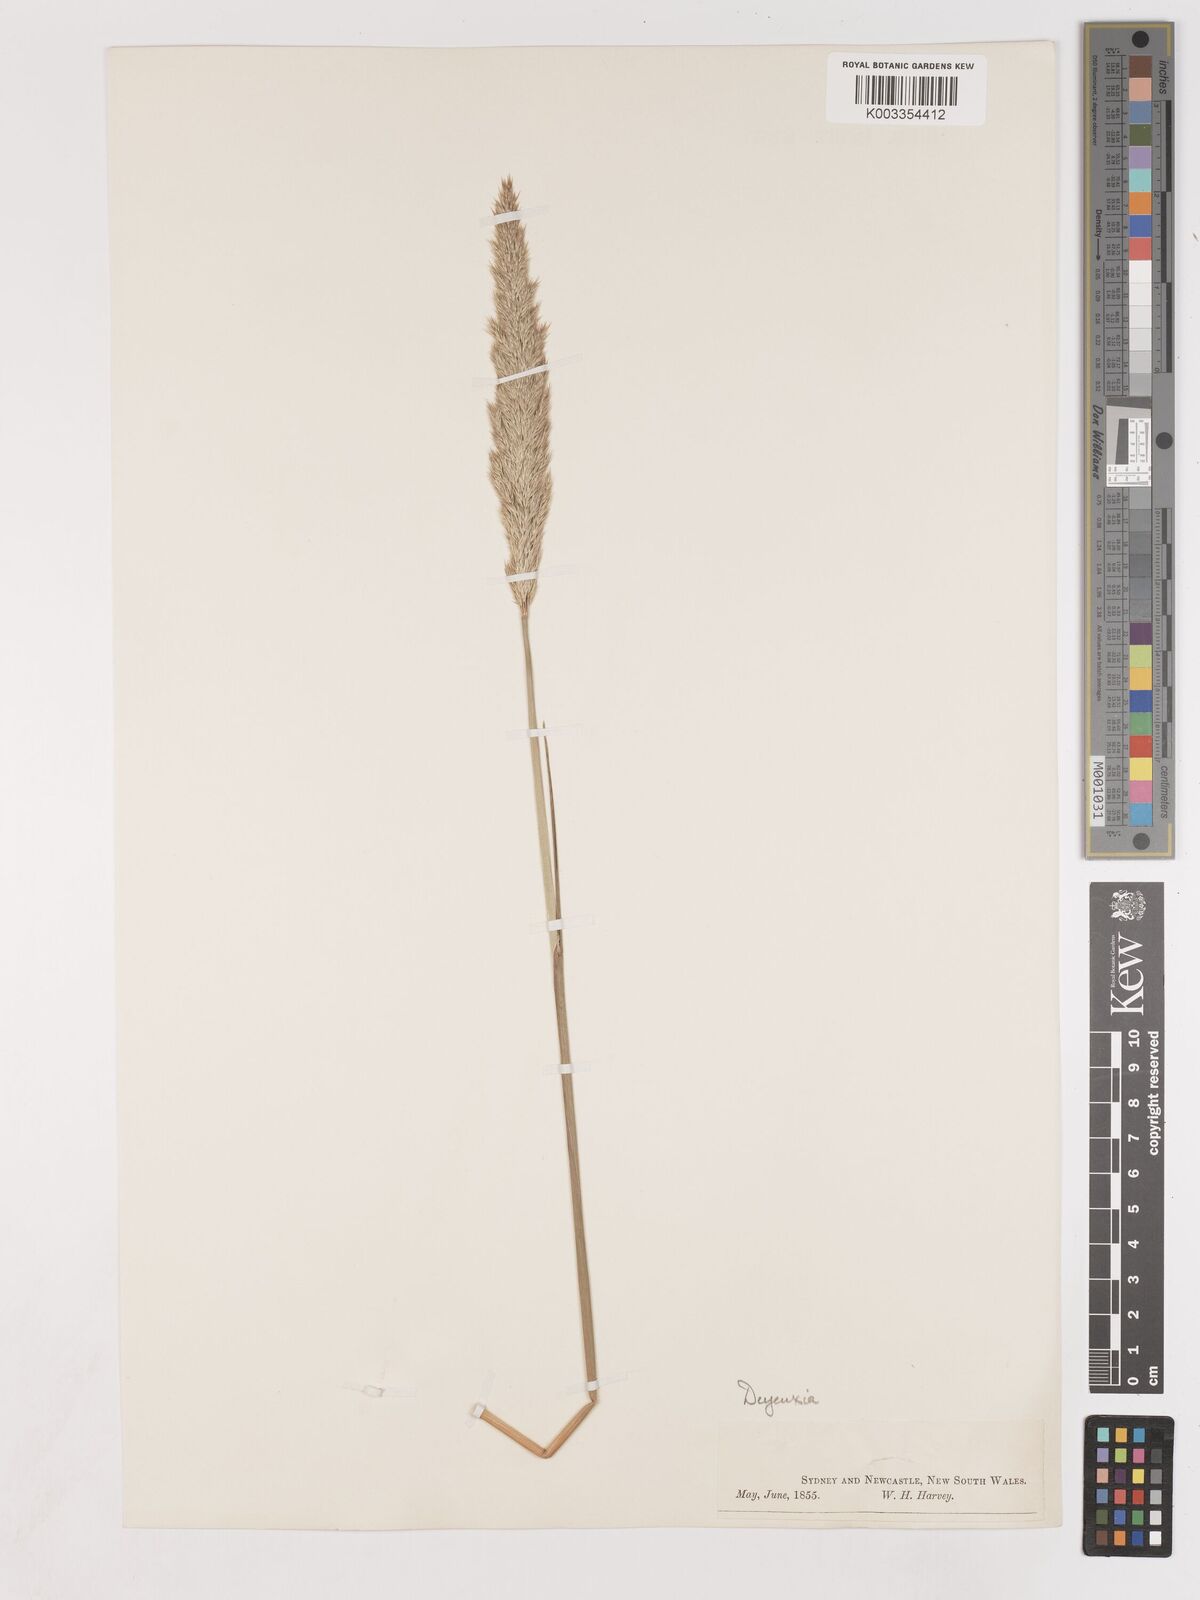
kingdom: Plantae
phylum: Tracheophyta
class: Liliopsida
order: Poales
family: Poaceae
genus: Calamagrostis
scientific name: Calamagrostis
